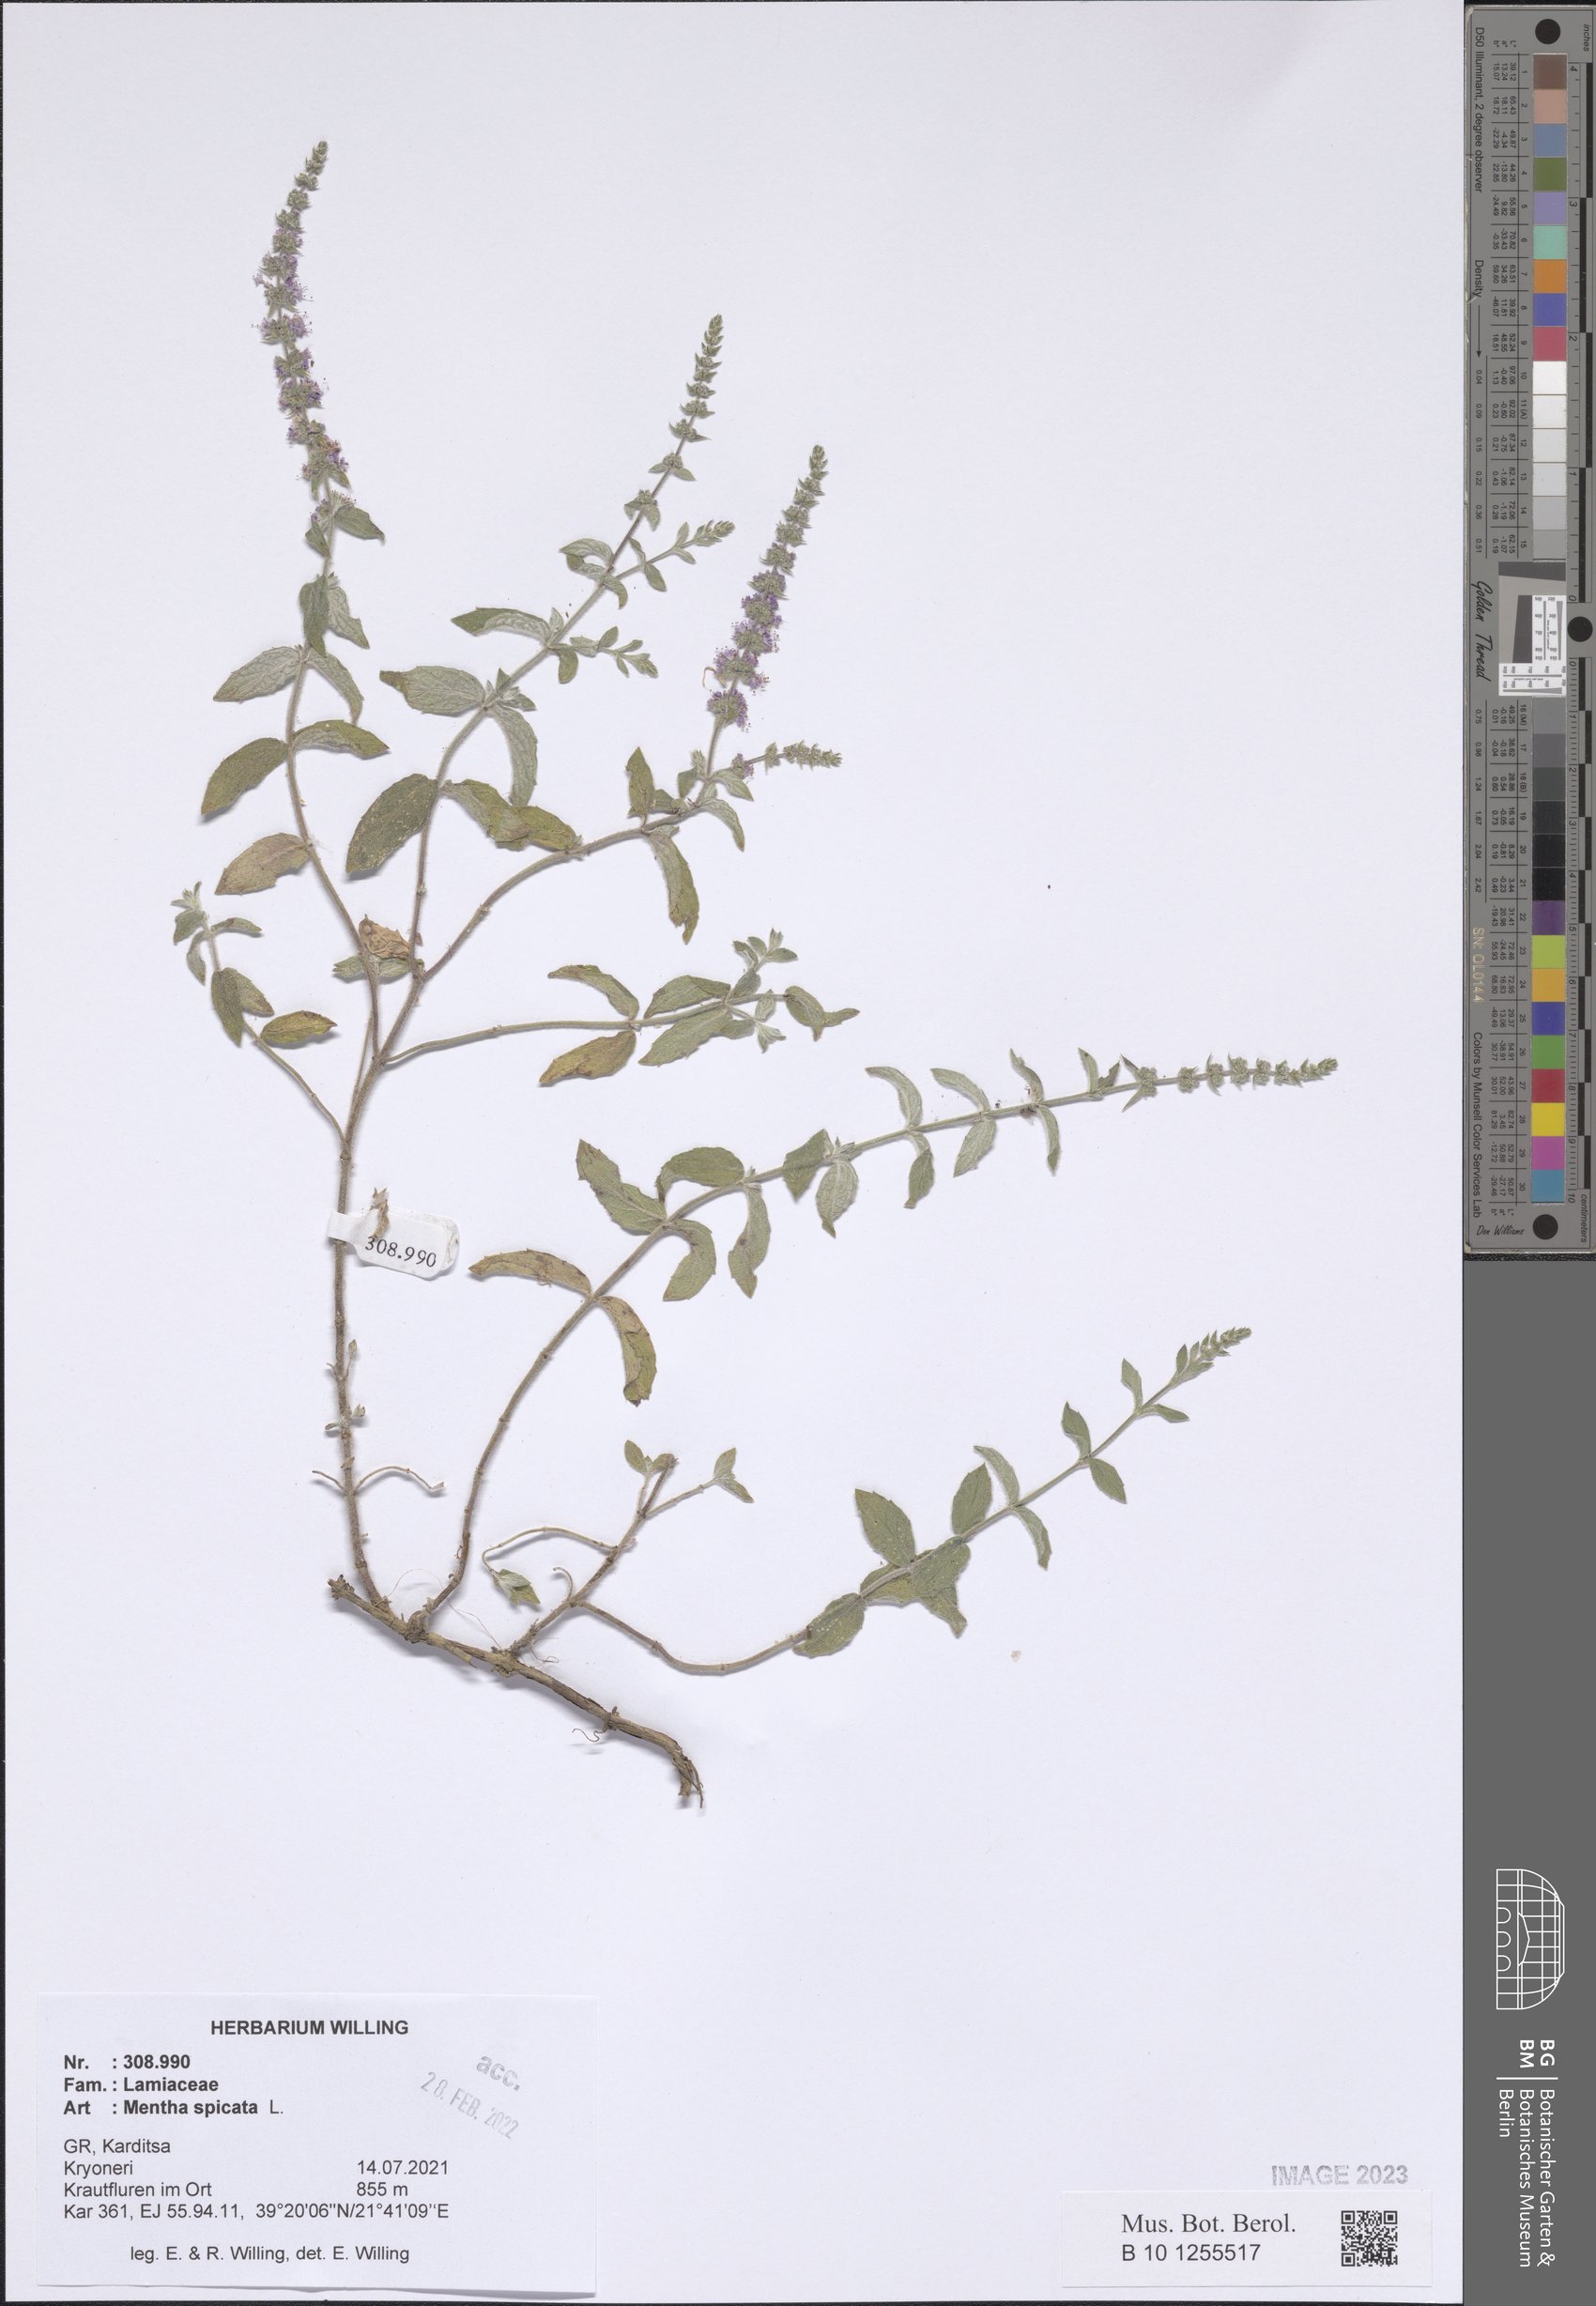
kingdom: Plantae
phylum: Tracheophyta
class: Magnoliopsida
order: Lamiales
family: Lamiaceae
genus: Mentha
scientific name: Mentha spicata
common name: Spearmint
